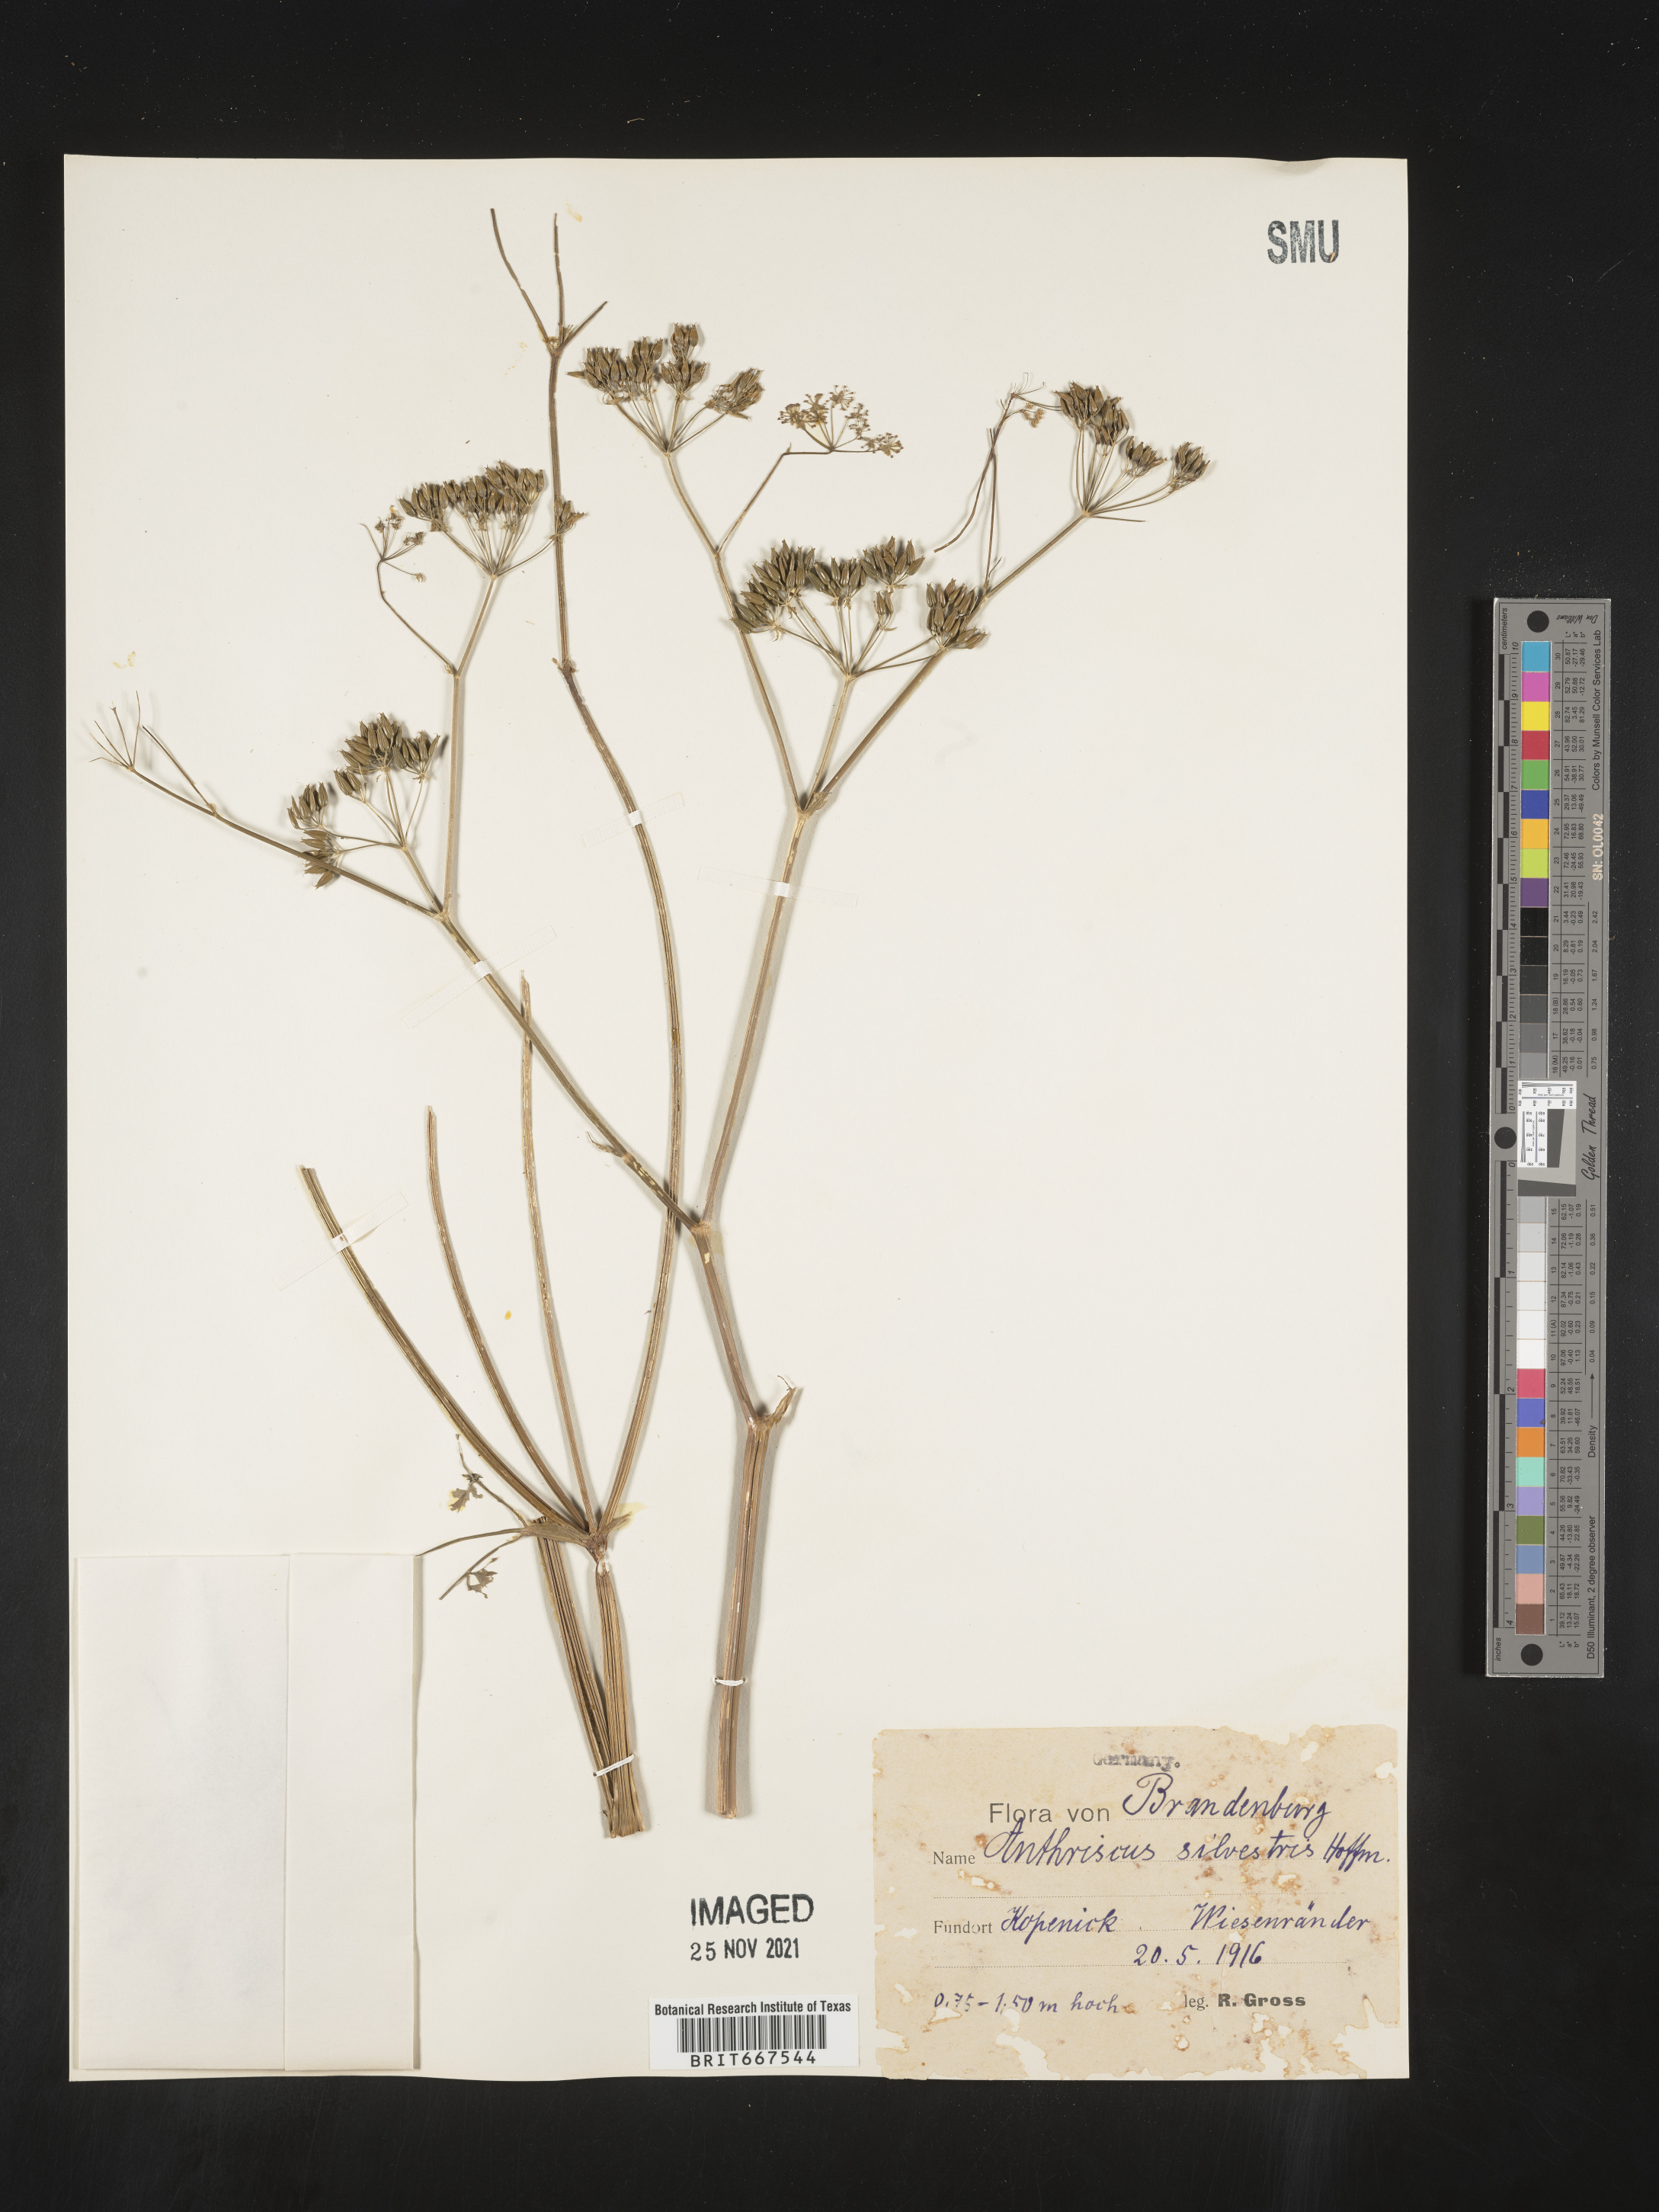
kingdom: Plantae
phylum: Tracheophyta
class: Magnoliopsida
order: Apiales
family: Apiaceae
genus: Anthriscus
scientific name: Anthriscus
